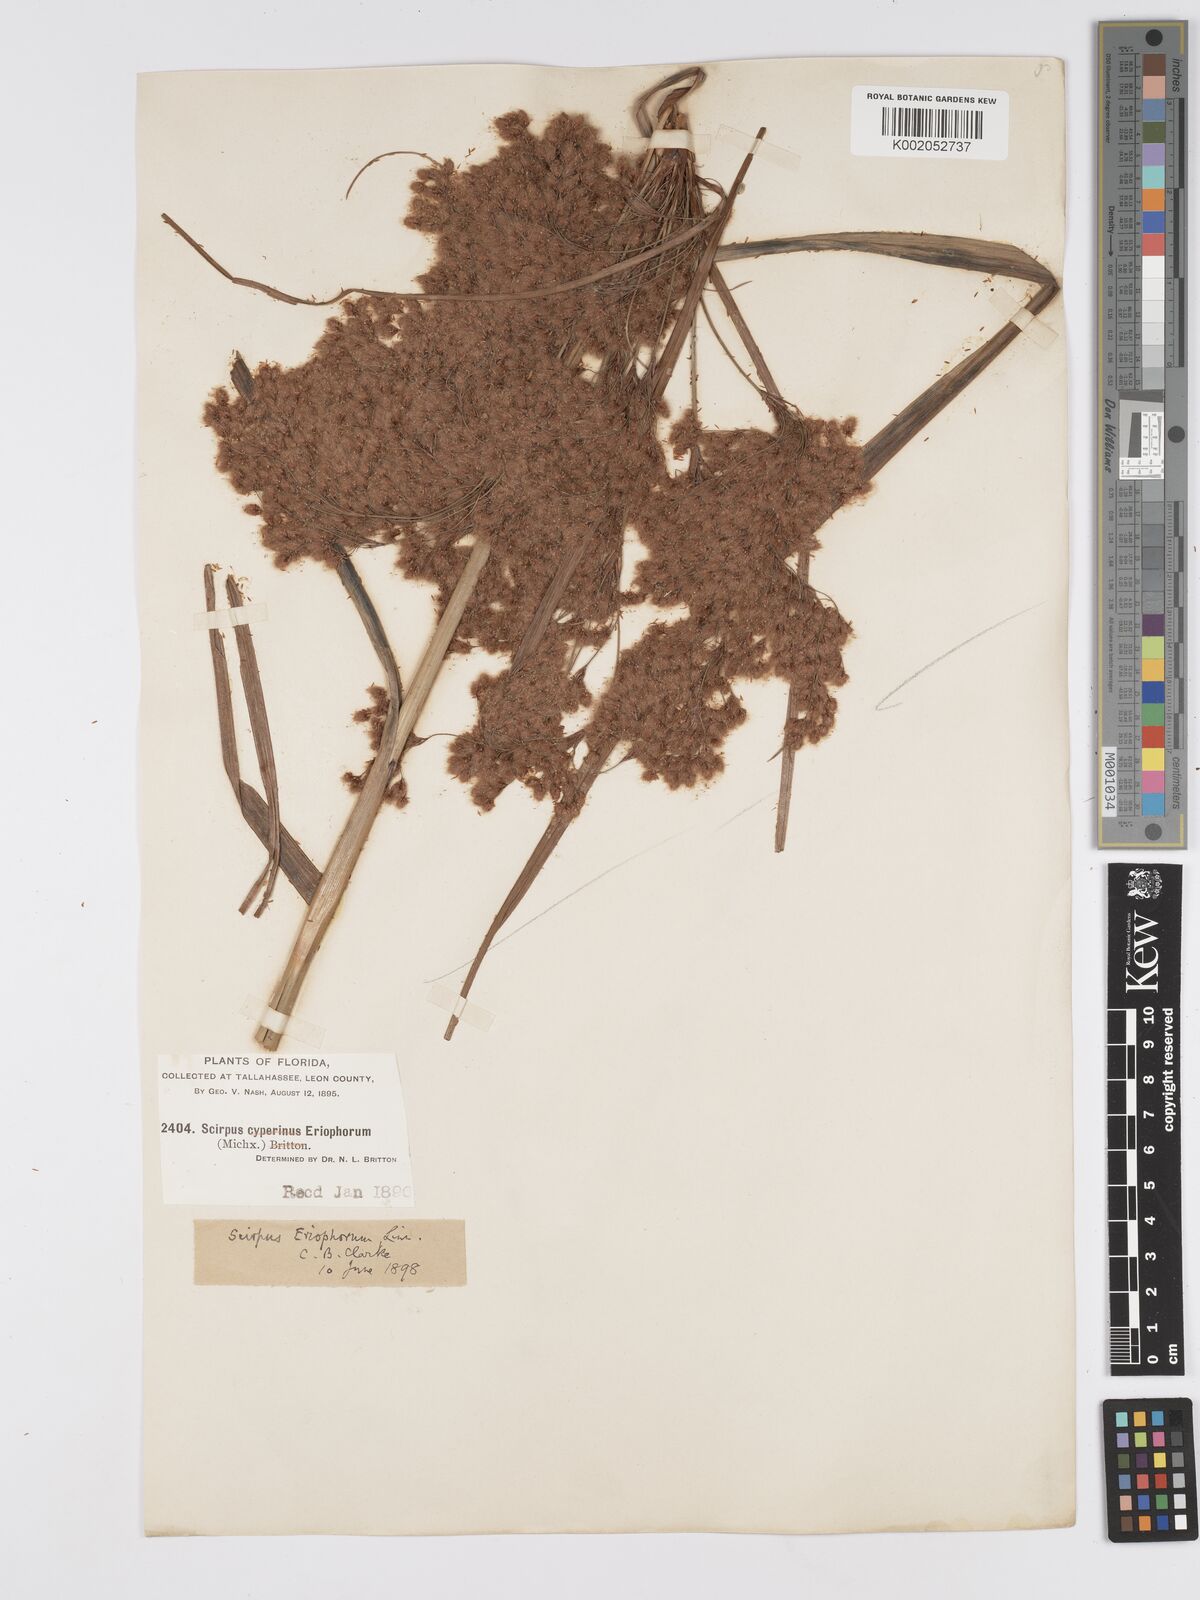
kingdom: Plantae
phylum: Tracheophyta
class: Liliopsida
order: Poales
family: Cyperaceae
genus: Scirpus
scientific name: Scirpus cyperinus
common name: Black-sheathed bulrush
